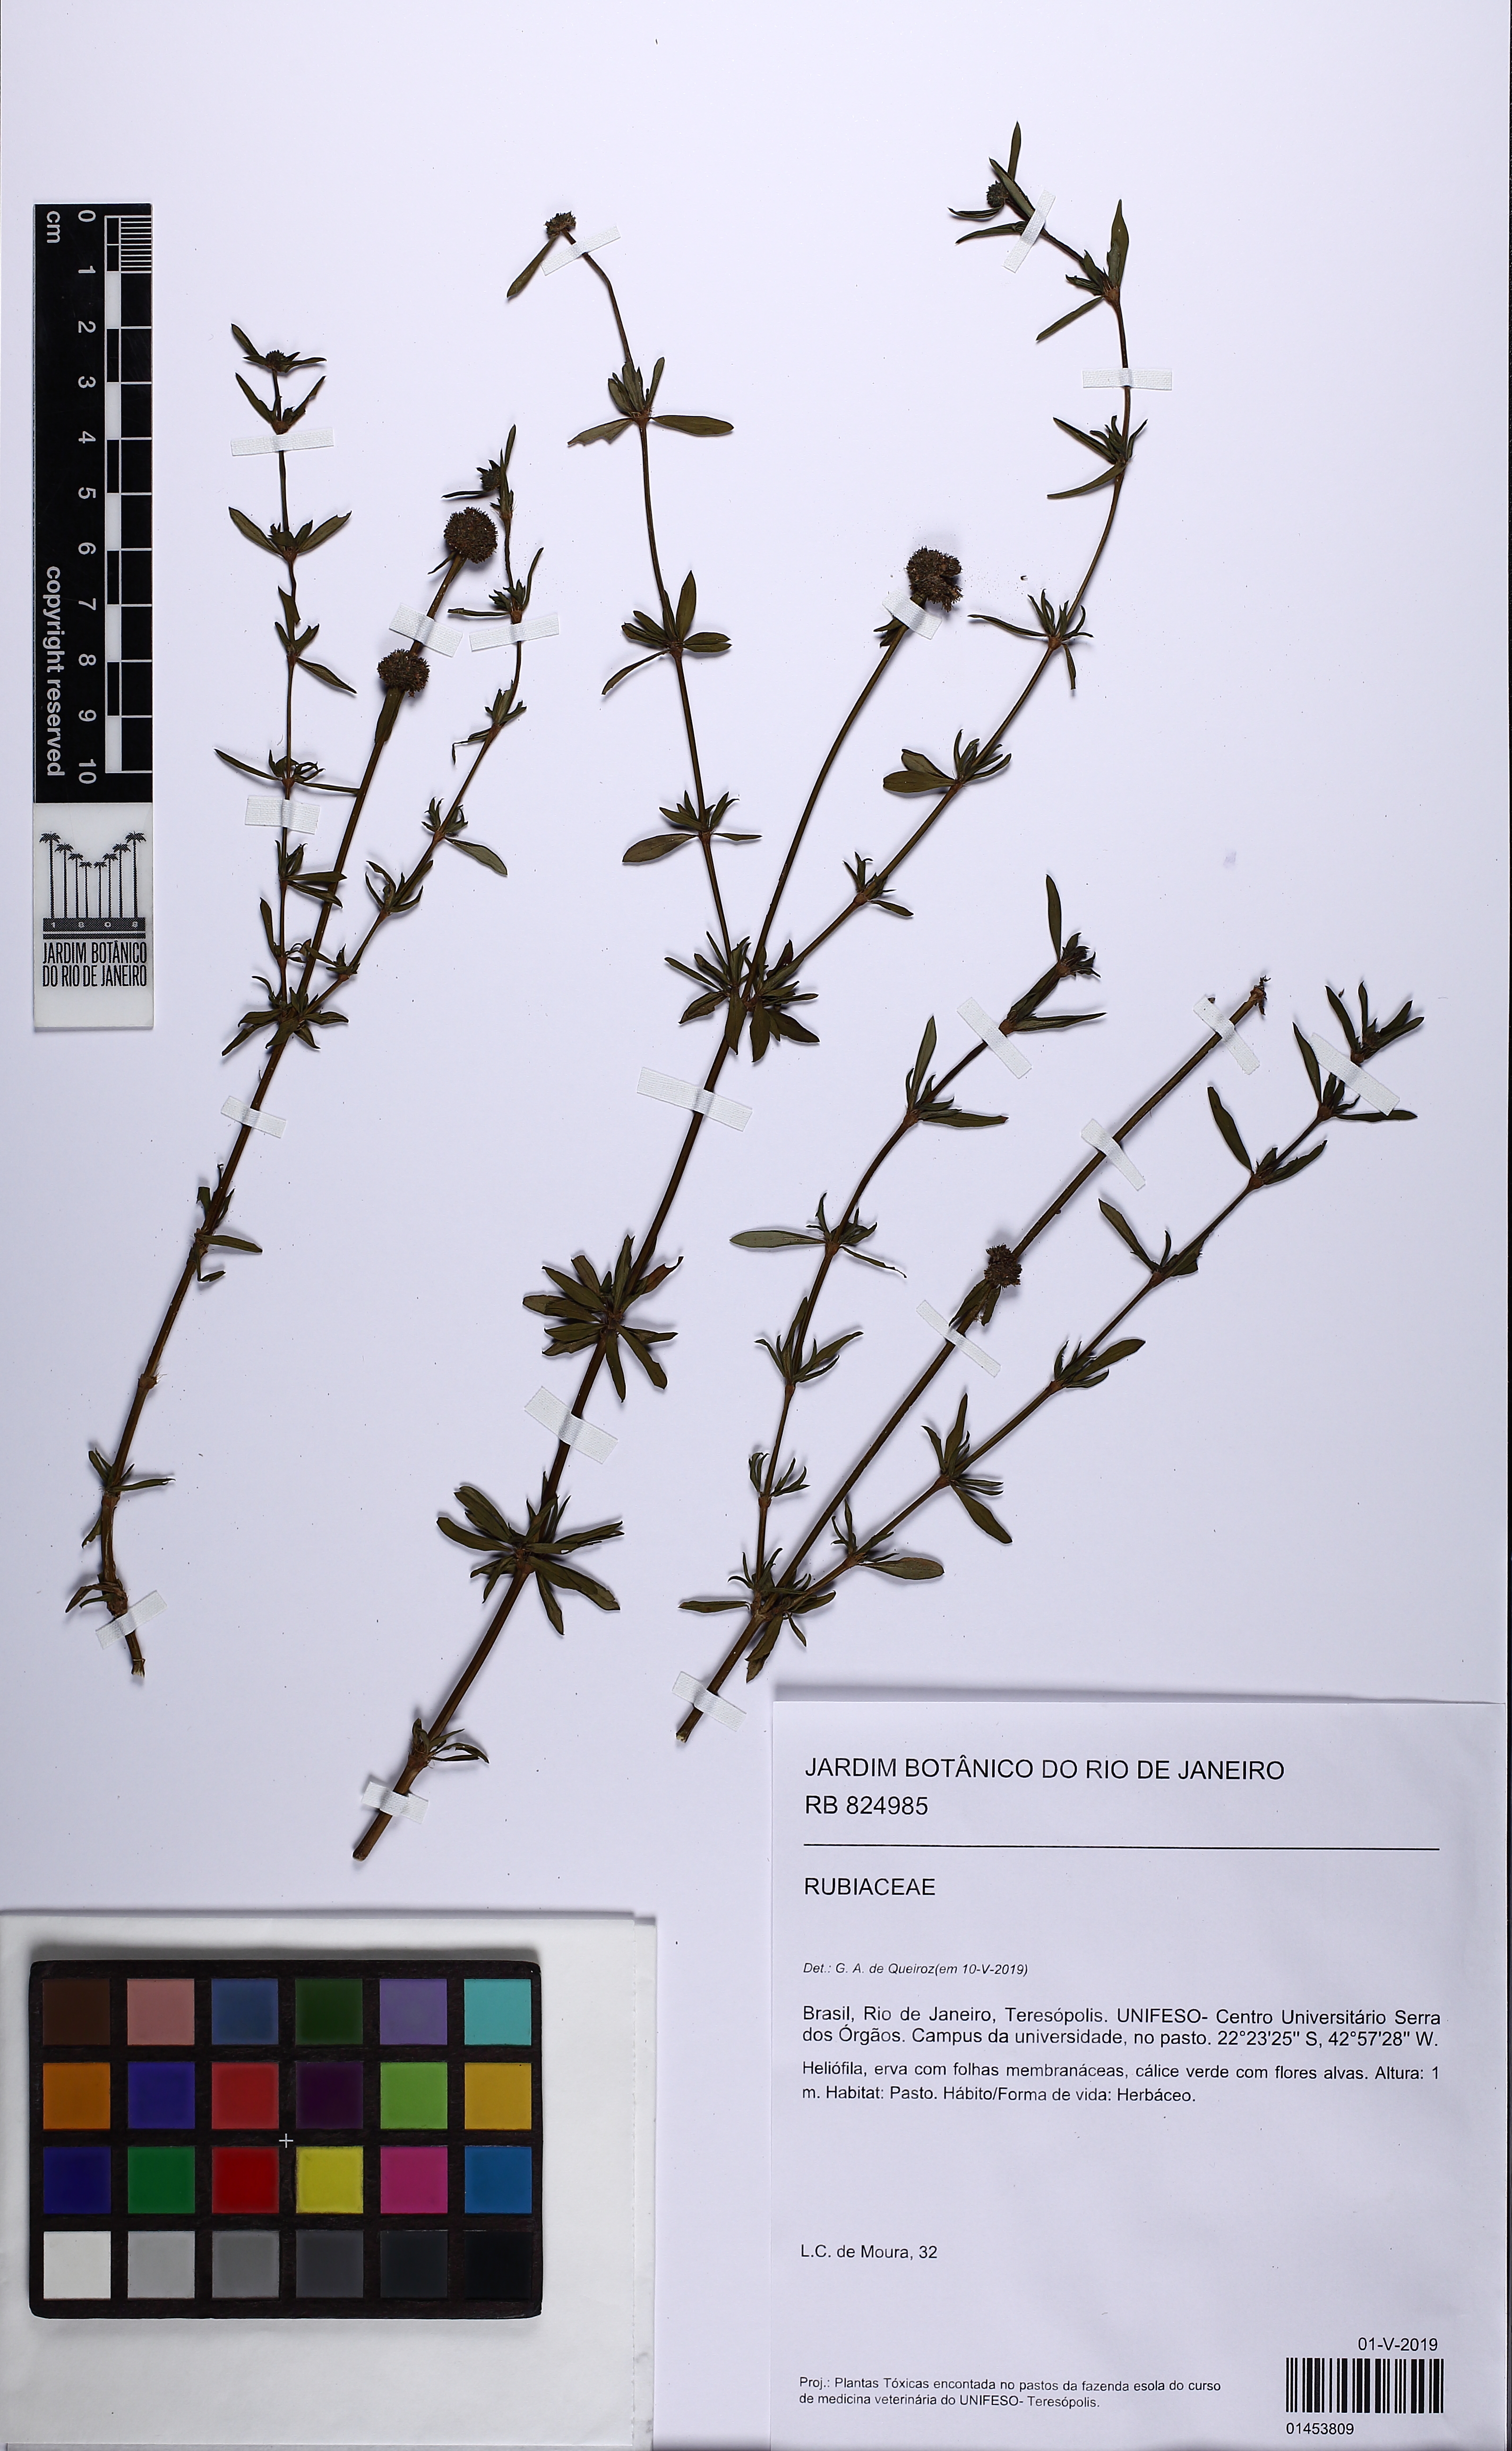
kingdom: Plantae
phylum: Tracheophyta
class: Magnoliopsida
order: Gentianales
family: Rubiaceae
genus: Spermacoce
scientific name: Spermacoce verticillata
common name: Shrubby false buttonweed
